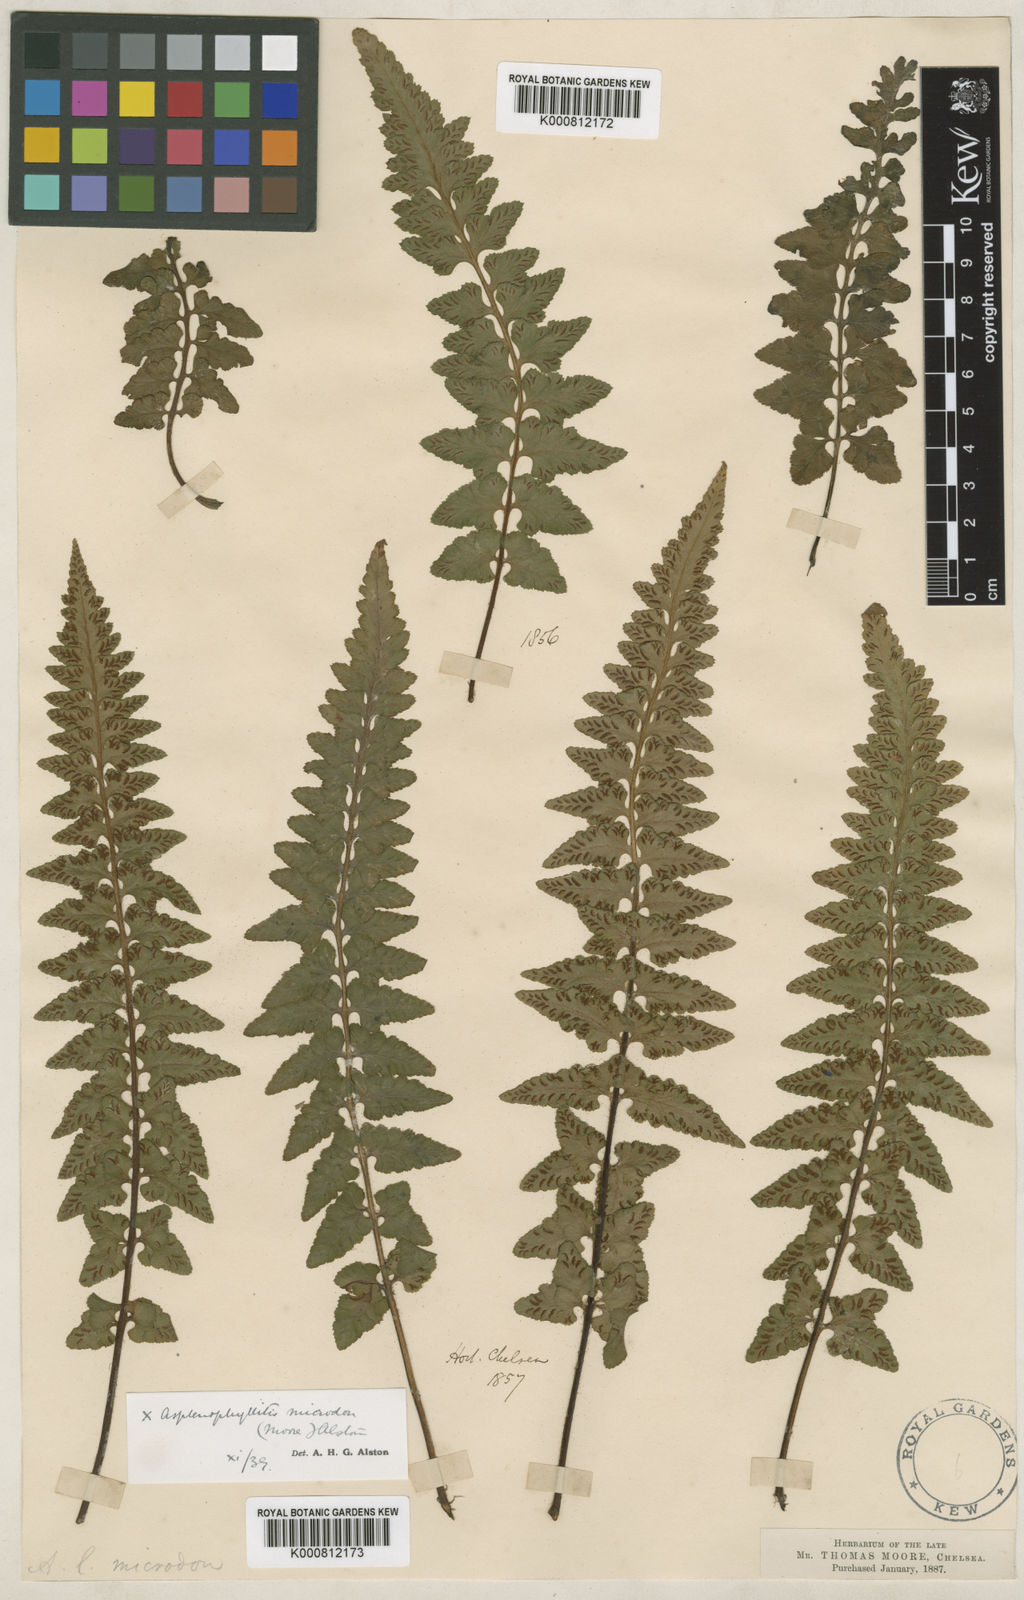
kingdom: Plantae
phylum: Tracheophyta
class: Polypodiopsida
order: Polypodiales
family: Aspleniaceae
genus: Asplenium
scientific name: Asplenium jacksonii
